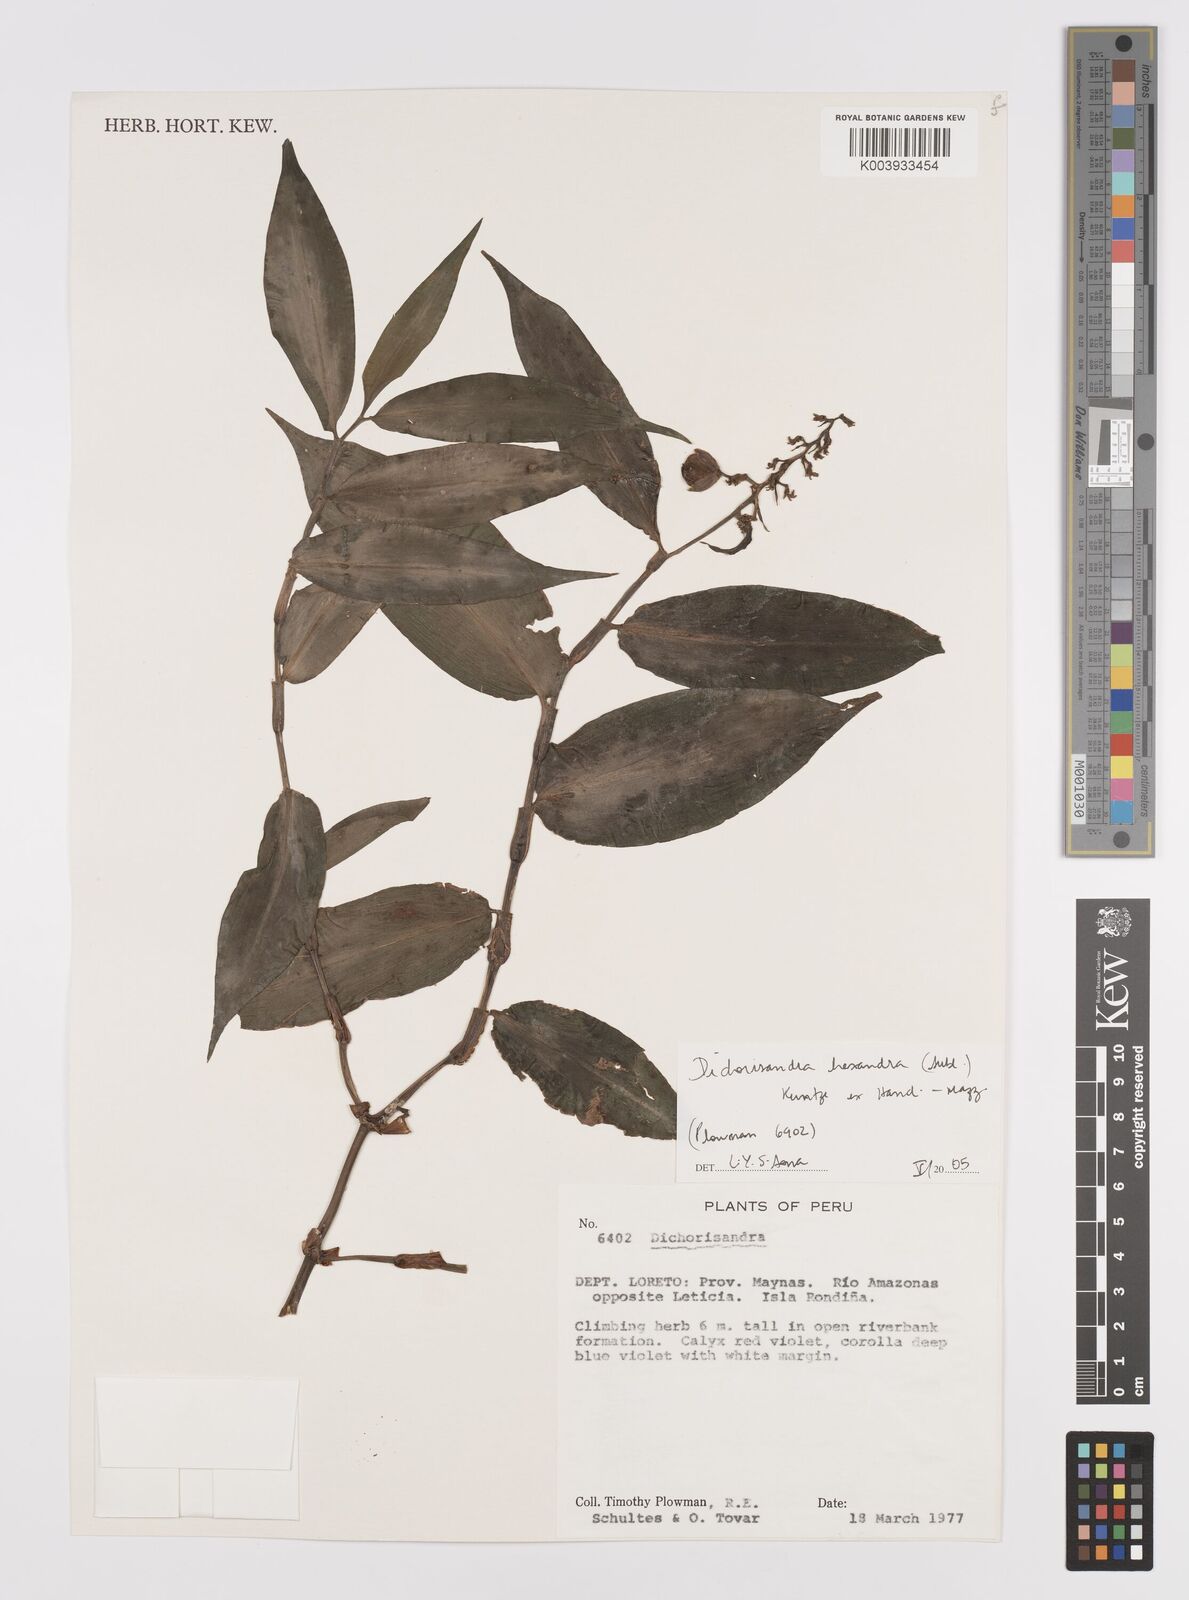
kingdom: Plantae
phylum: Tracheophyta
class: Liliopsida
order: Commelinales
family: Commelinaceae
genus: Dichorisandra
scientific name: Dichorisandra hexandra
